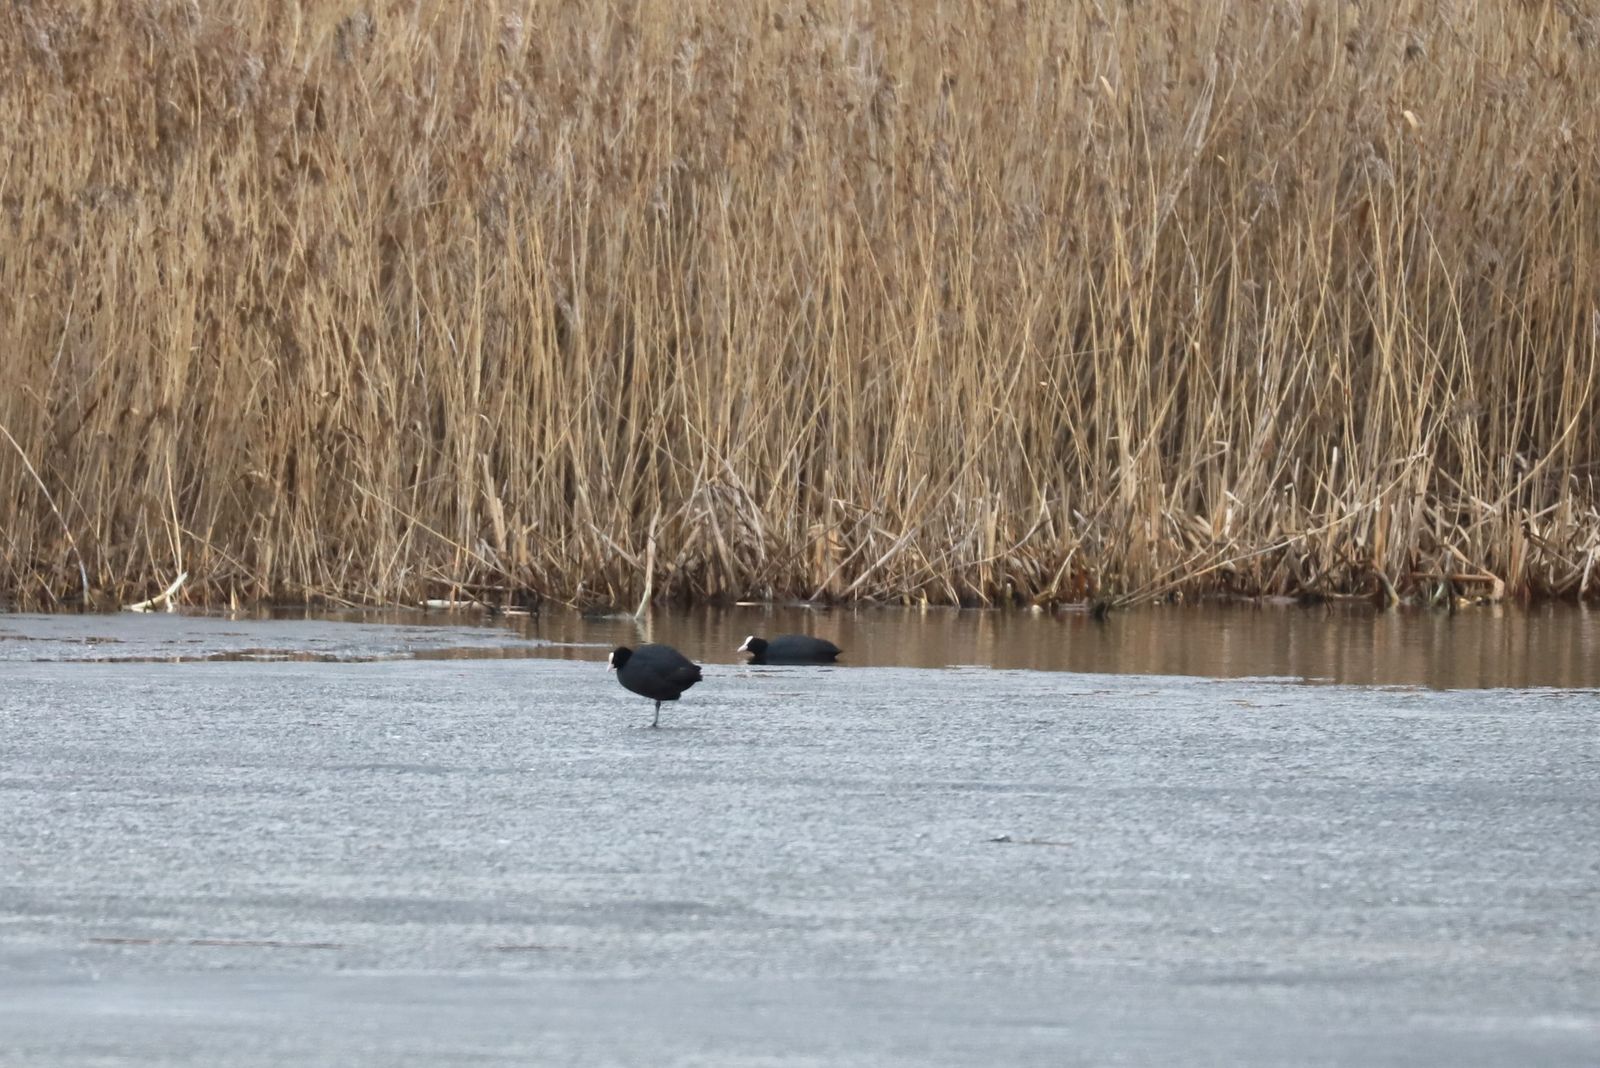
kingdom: Animalia
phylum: Chordata
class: Aves
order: Gruiformes
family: Rallidae
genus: Fulica
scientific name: Fulica atra
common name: Eurasian coot
